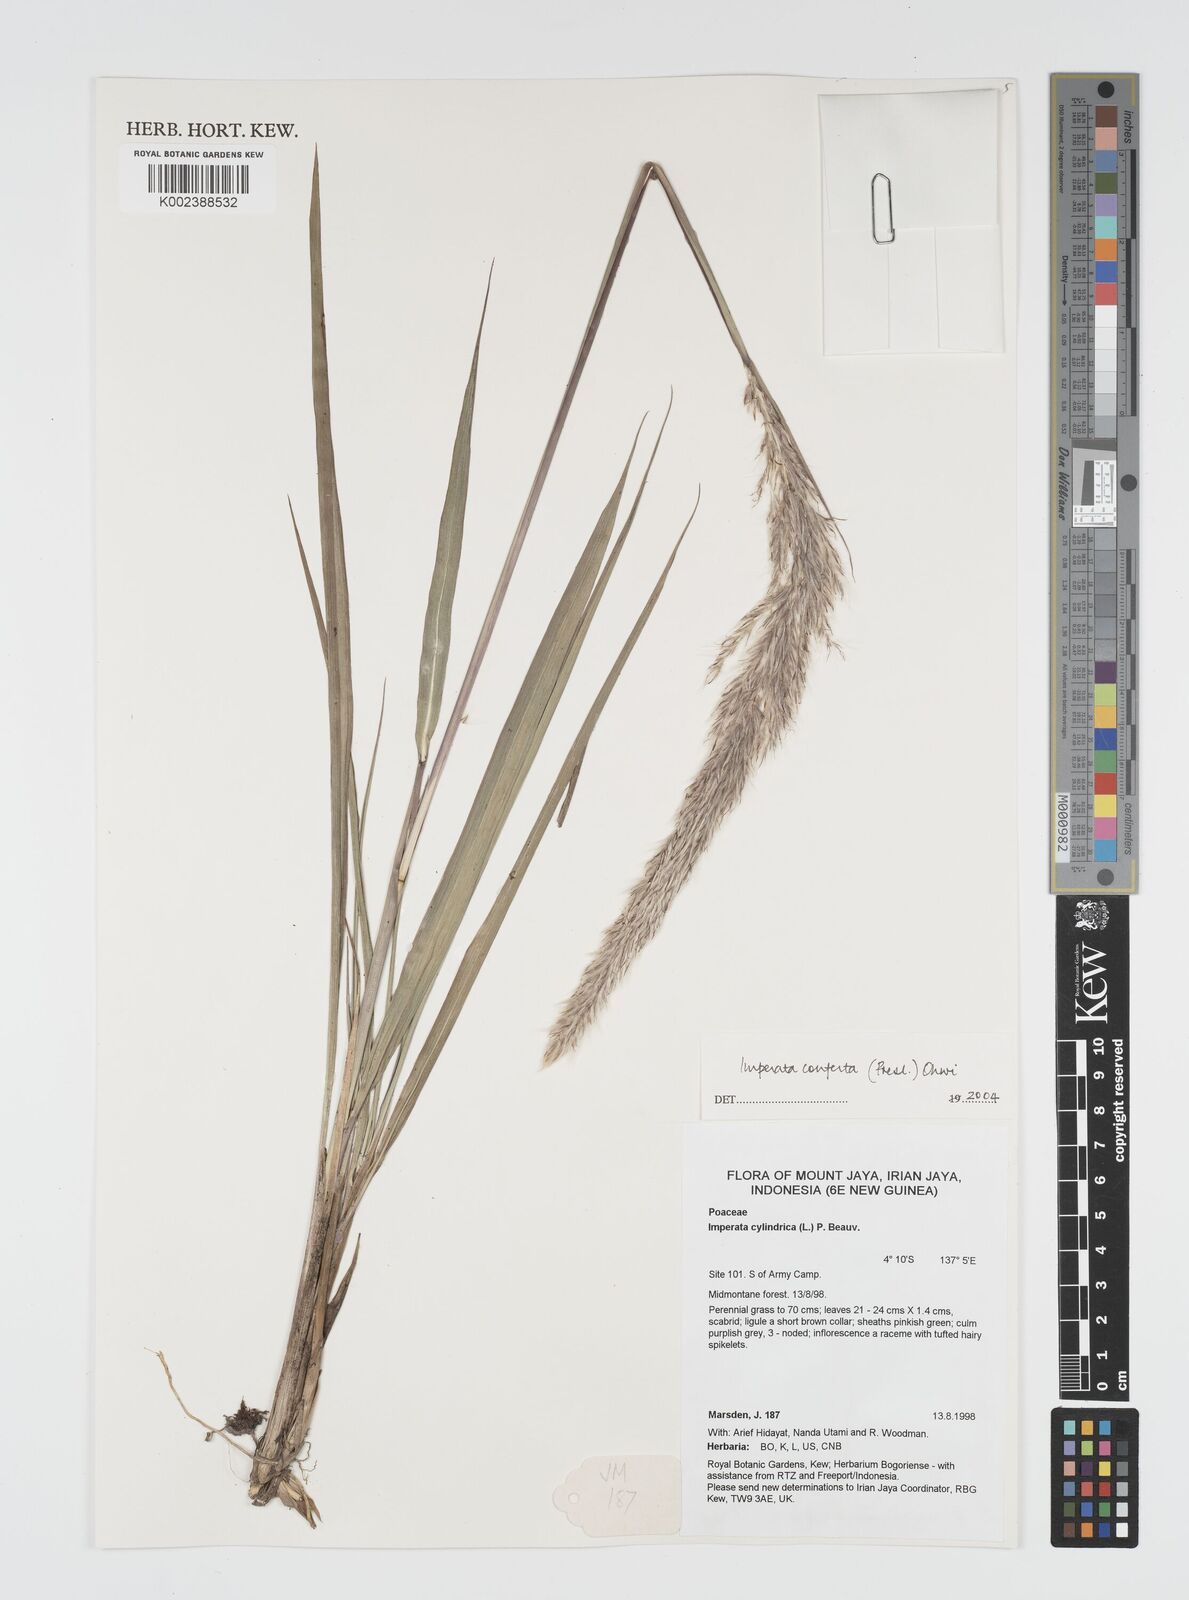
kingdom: Plantae
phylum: Tracheophyta
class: Liliopsida
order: Poales
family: Poaceae
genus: Imperata
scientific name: Imperata conferta
